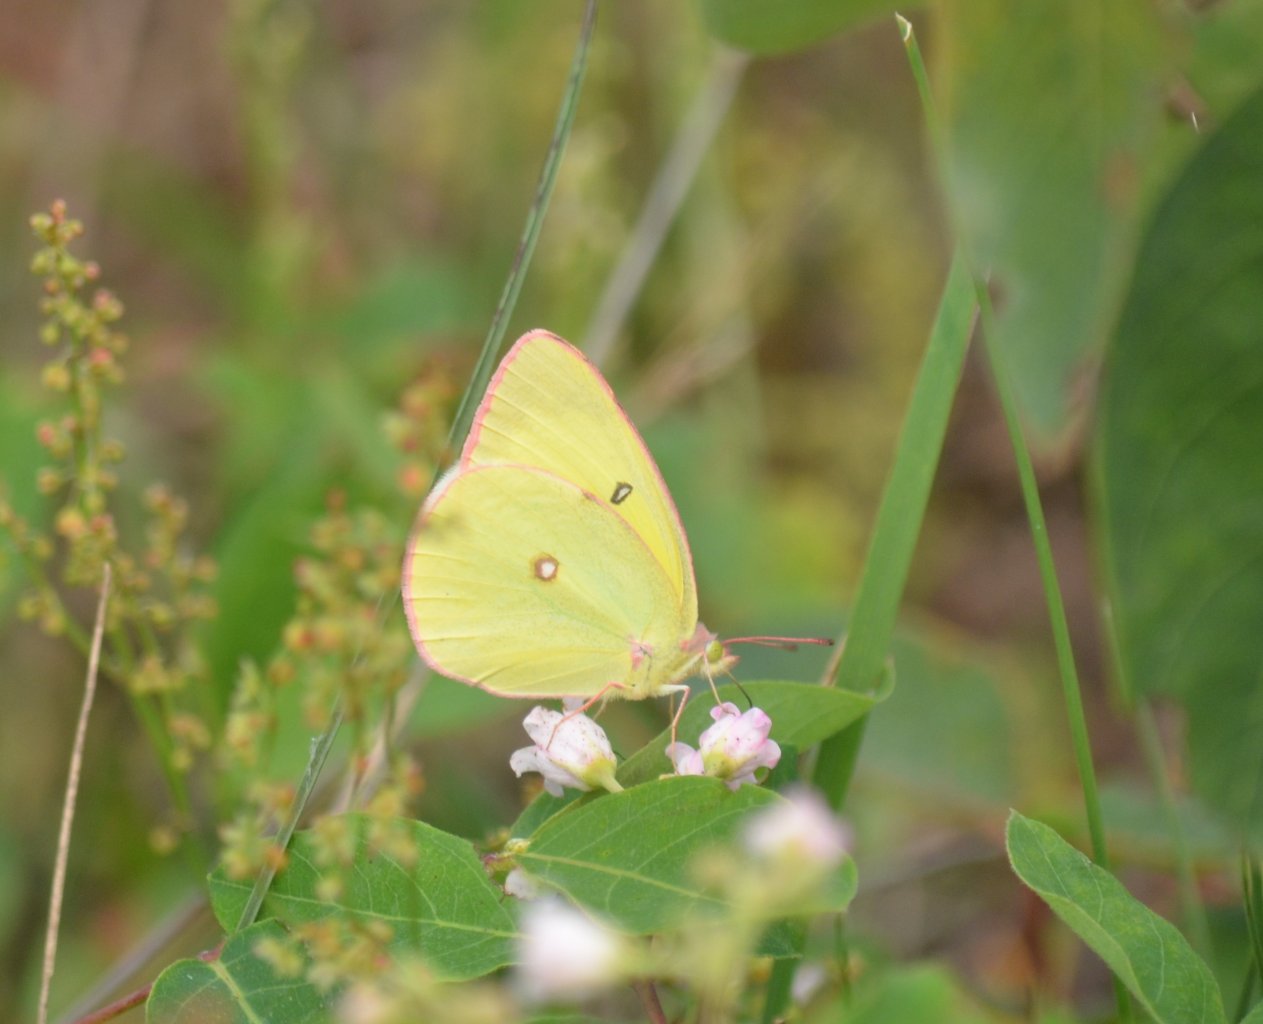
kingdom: Animalia
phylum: Arthropoda
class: Insecta
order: Lepidoptera
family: Pieridae
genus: Colias
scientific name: Colias interior
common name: Pink-edged Sulphur
